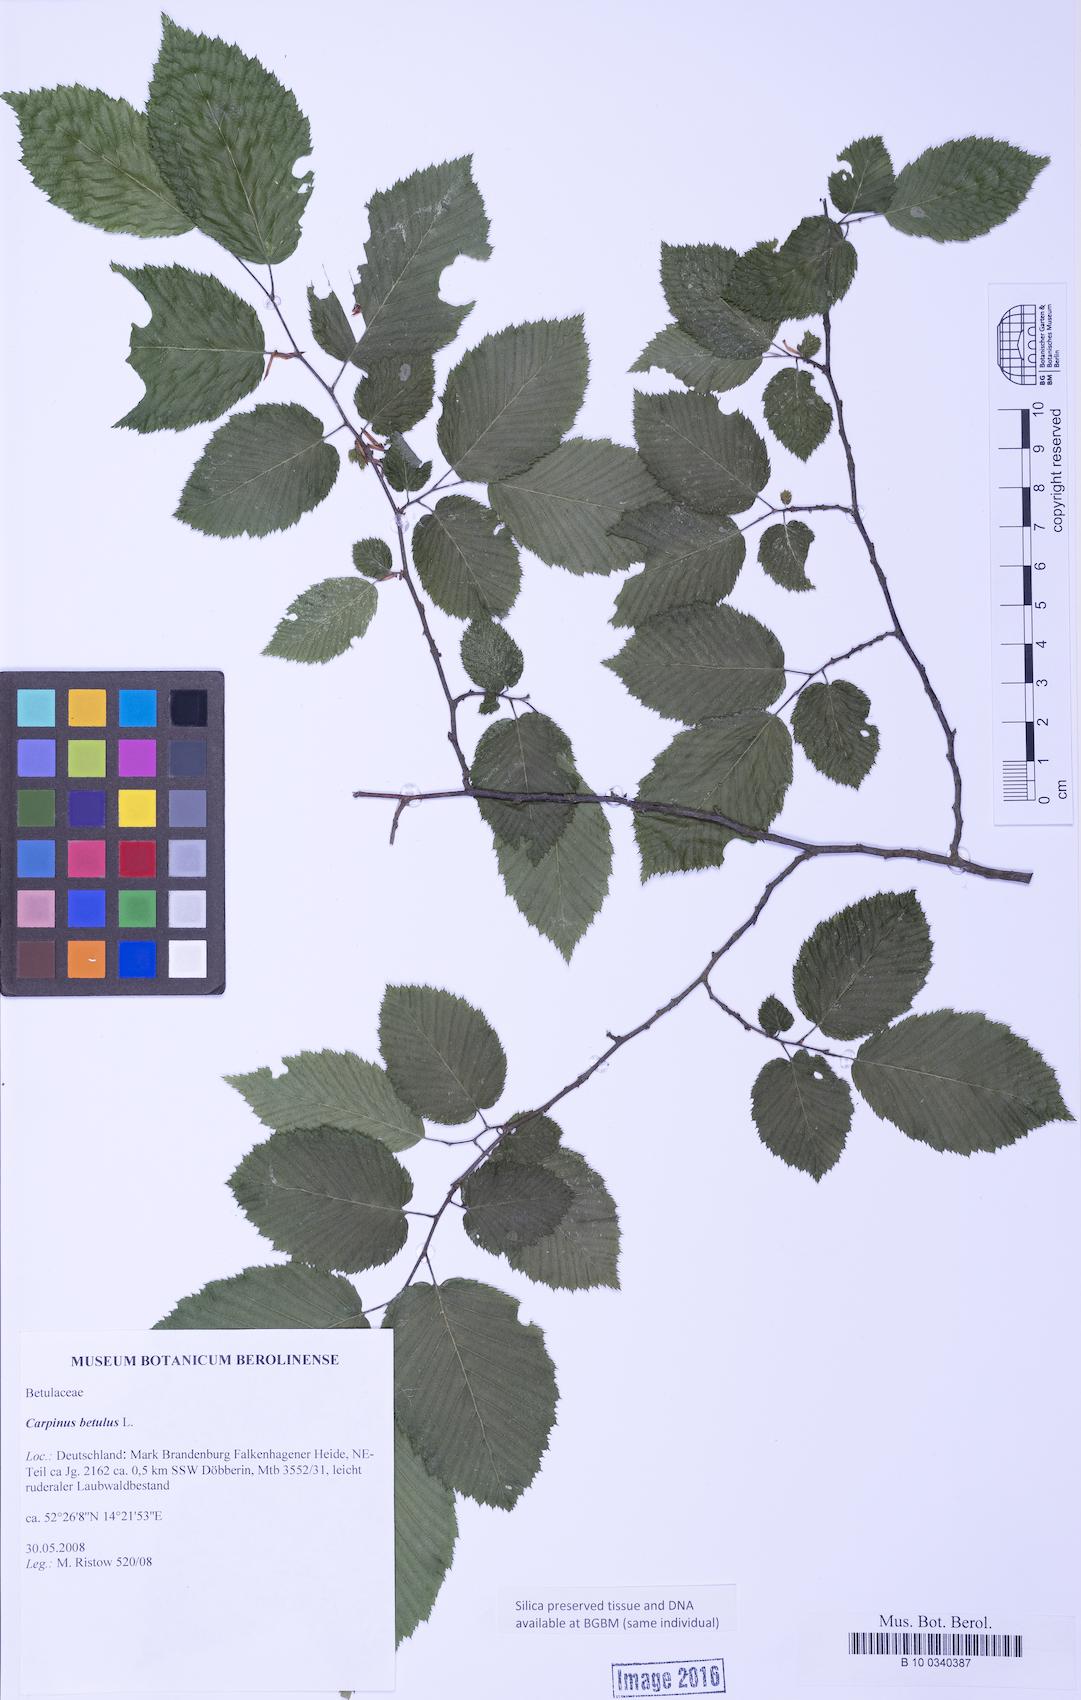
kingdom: Plantae
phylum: Tracheophyta
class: Magnoliopsida
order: Fagales
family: Betulaceae
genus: Carpinus
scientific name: Carpinus betulus
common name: Hornbeam
